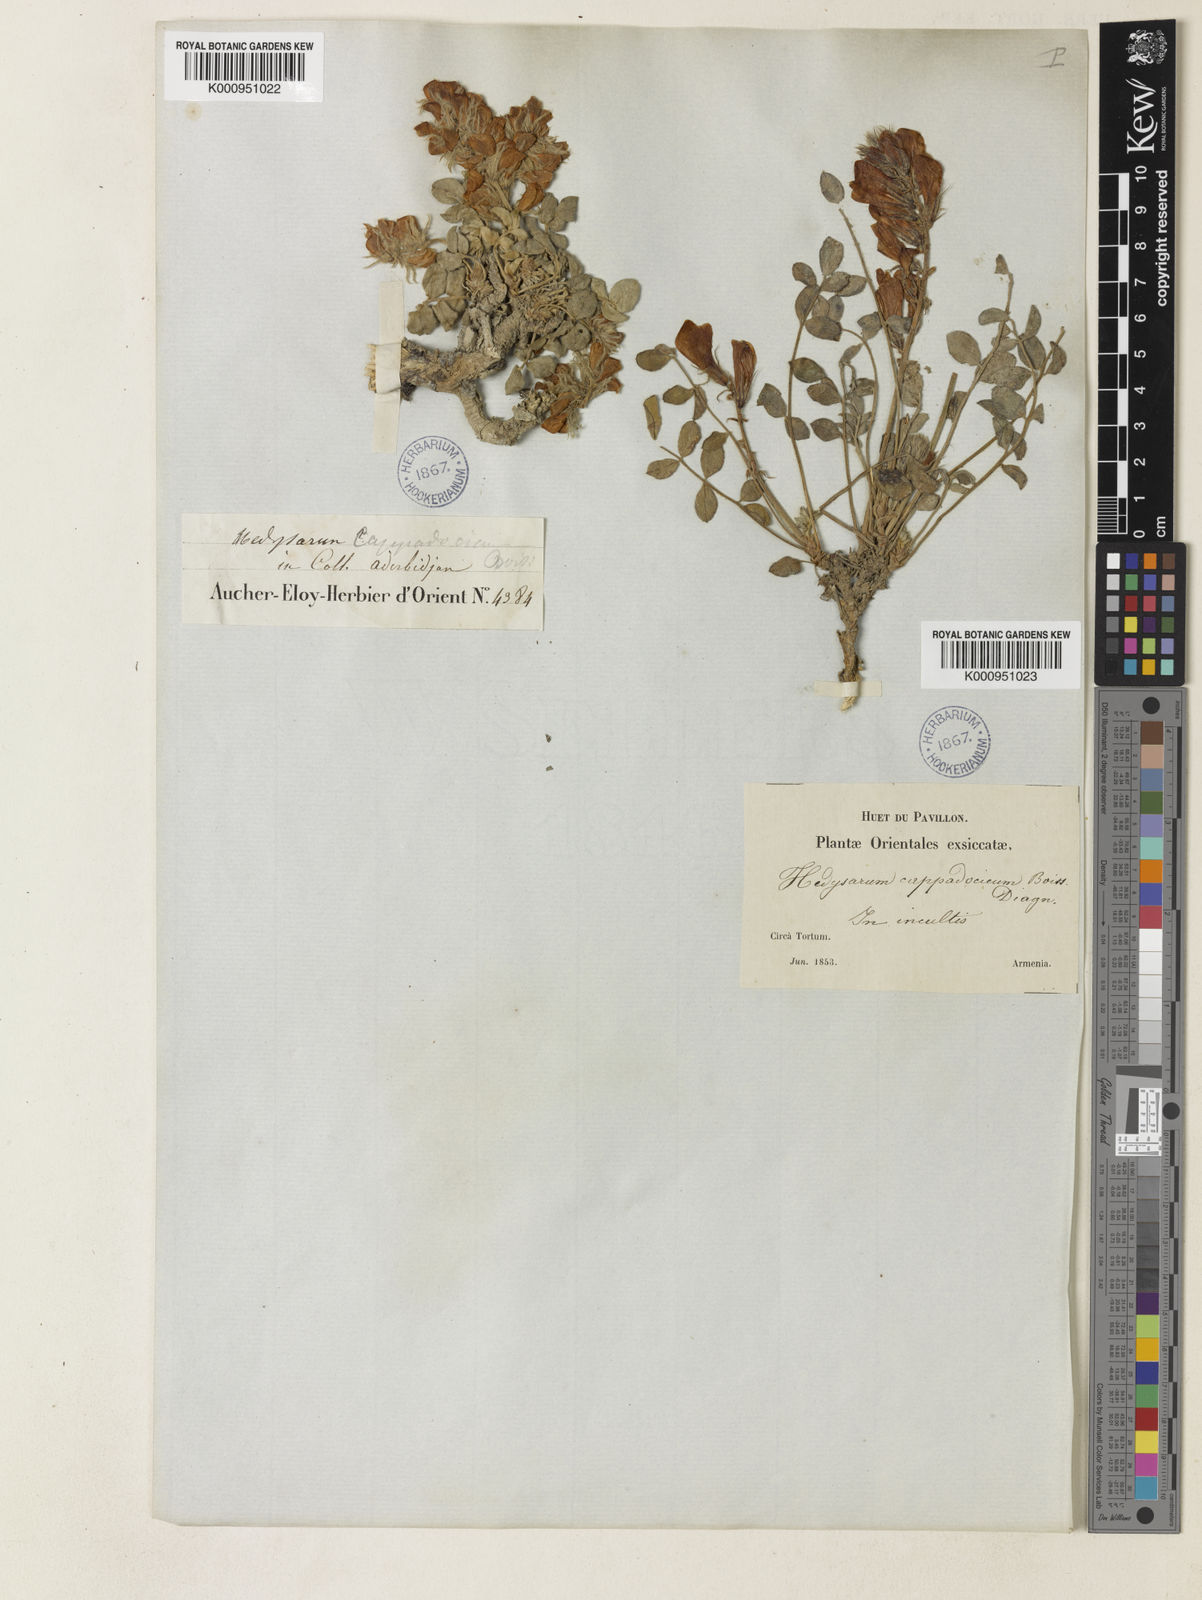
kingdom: Plantae
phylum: Tracheophyta
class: Magnoliopsida
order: Fabales
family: Fabaceae
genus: Hedysarum
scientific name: Hedysarum grandiflorum
